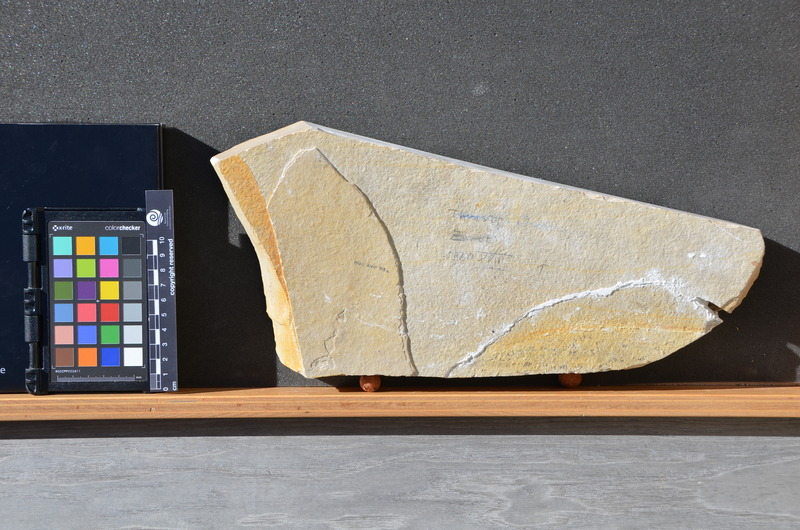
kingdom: Animalia
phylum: Chordata
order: Amiiformes
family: Ionoscopidae
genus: Ionoscopus
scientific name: Ionoscopus desori
